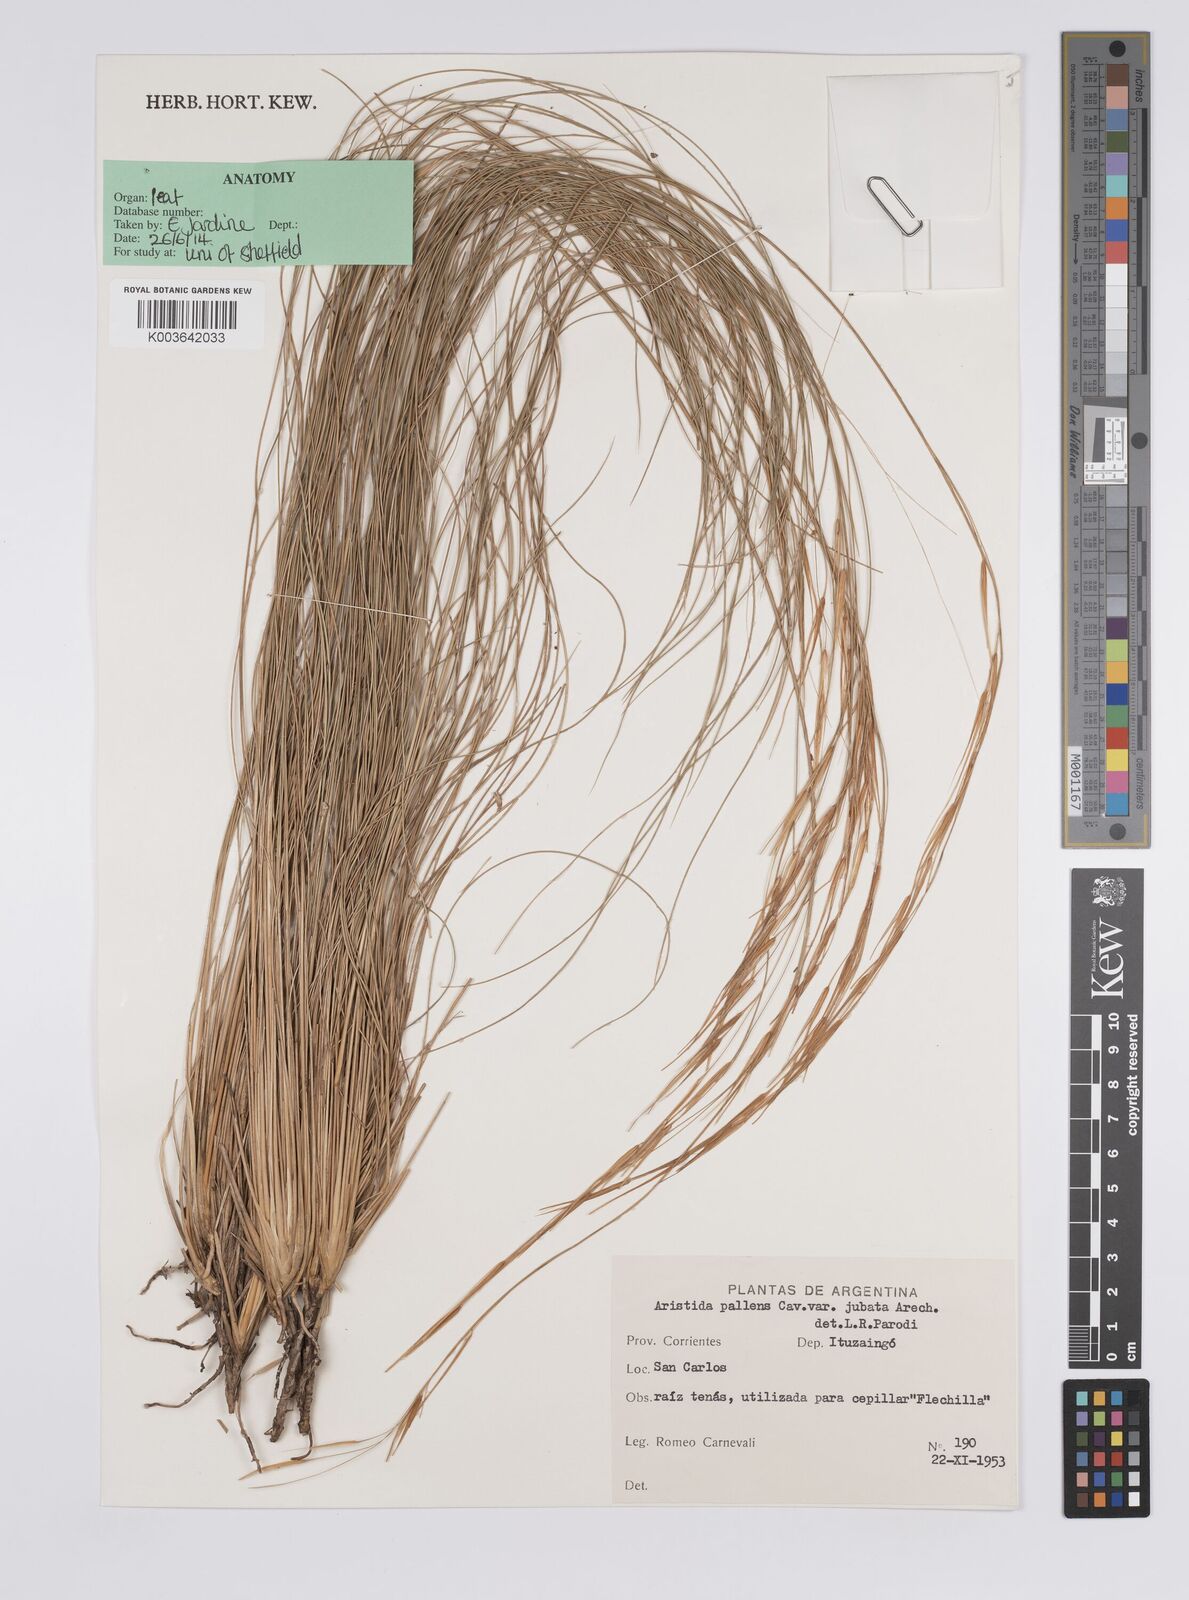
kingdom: Plantae
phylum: Tracheophyta
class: Liliopsida
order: Poales
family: Poaceae
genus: Aristida
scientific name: Aristida pallens
